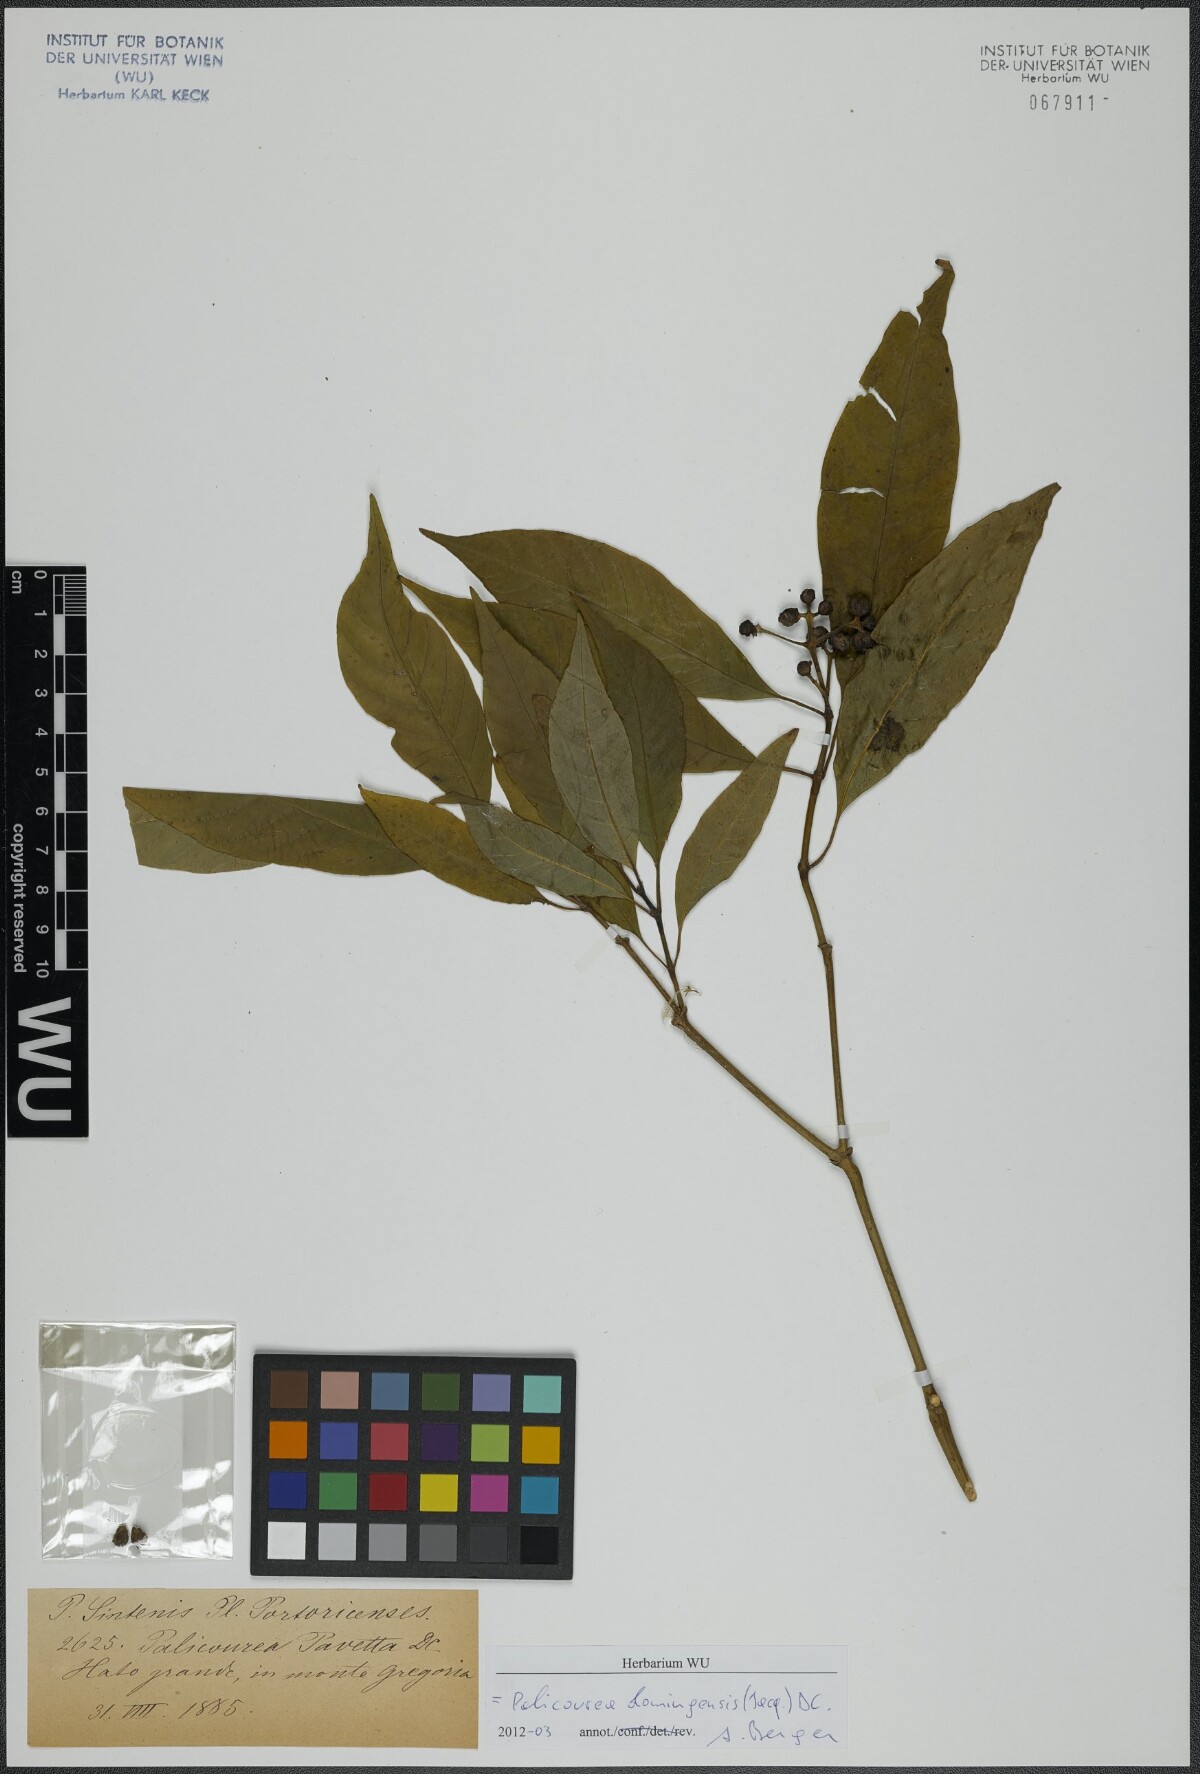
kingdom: Plantae
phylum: Tracheophyta
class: Magnoliopsida
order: Gentianales
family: Rubiaceae
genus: Palicourea
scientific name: Palicourea domingensis
